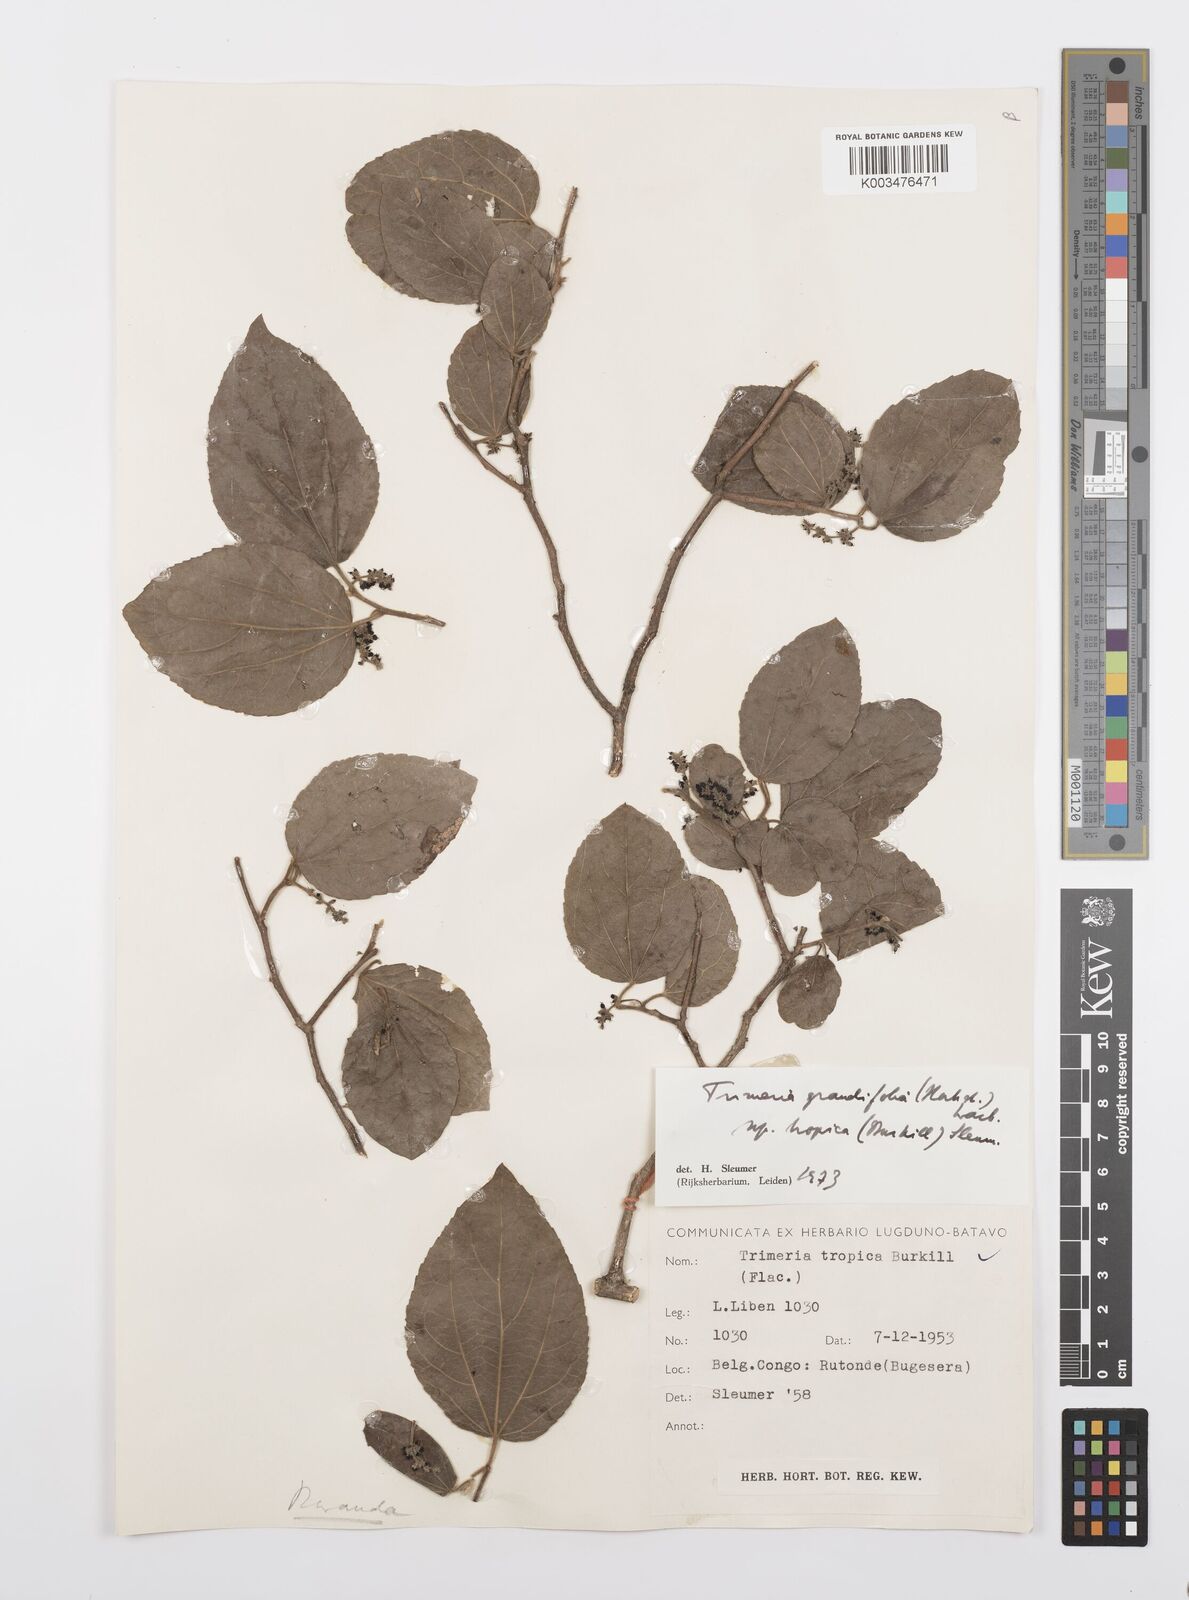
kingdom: Plantae
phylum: Tracheophyta
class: Magnoliopsida
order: Malpighiales
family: Salicaceae
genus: Trimeria
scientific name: Trimeria grandifolia
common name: Wild mulberry
